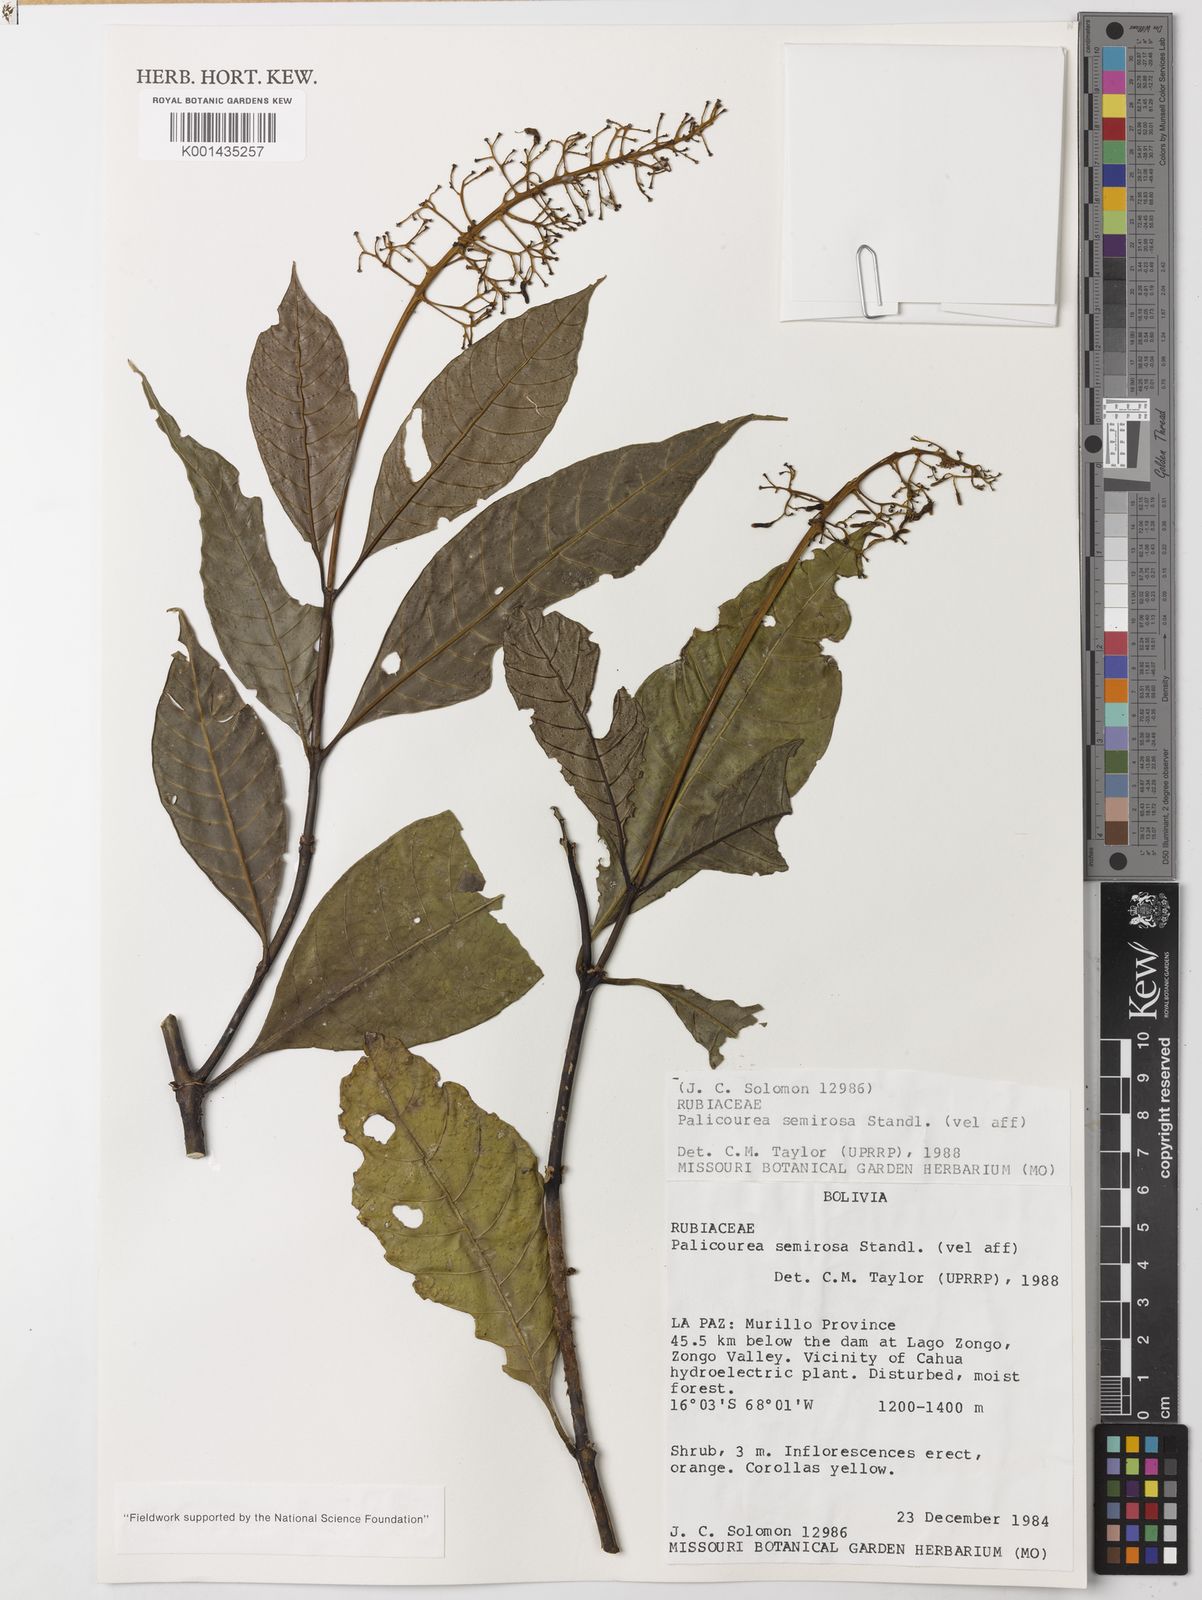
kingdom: Plantae
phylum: Tracheophyta
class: Magnoliopsida
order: Gentianales
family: Rubiaceae
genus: Palicourea
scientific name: Palicourea semirasa
